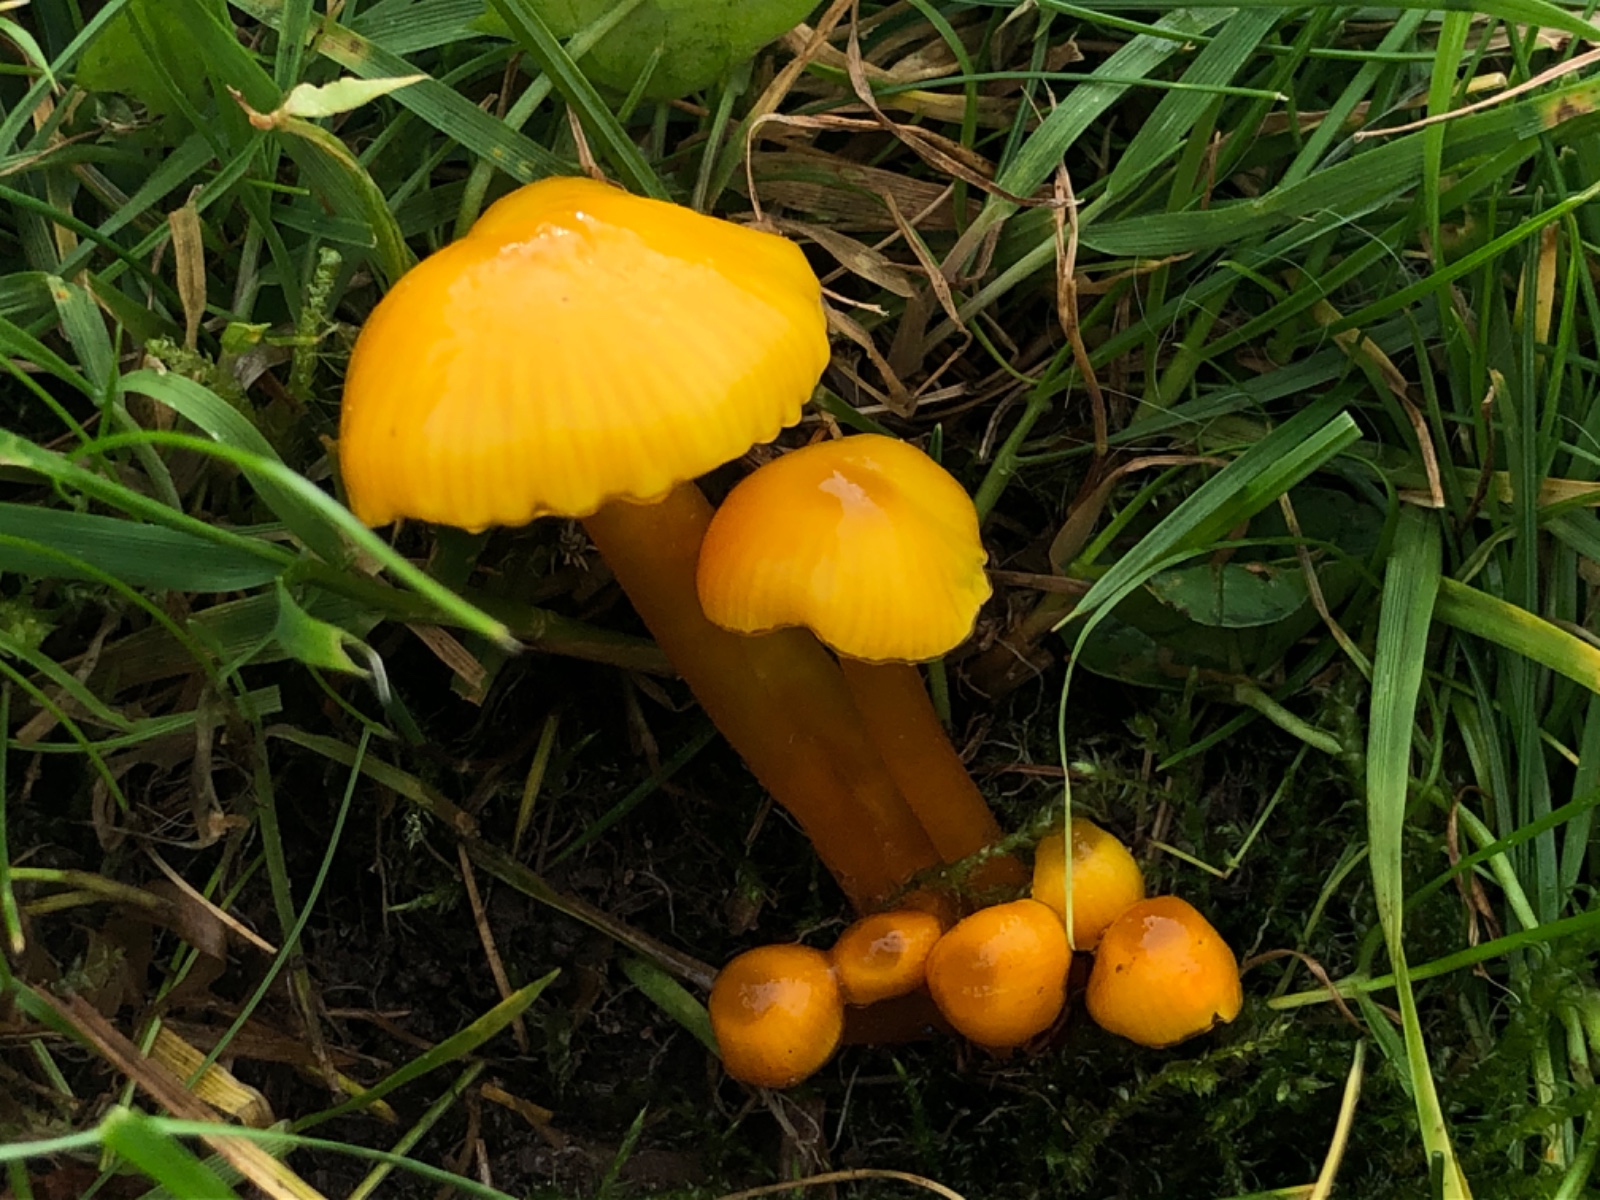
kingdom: Fungi
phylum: Basidiomycota
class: Agaricomycetes
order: Agaricales
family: Hygrophoraceae
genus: Hygrocybe
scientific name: Hygrocybe glutinipes
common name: slimstokket vokshat
